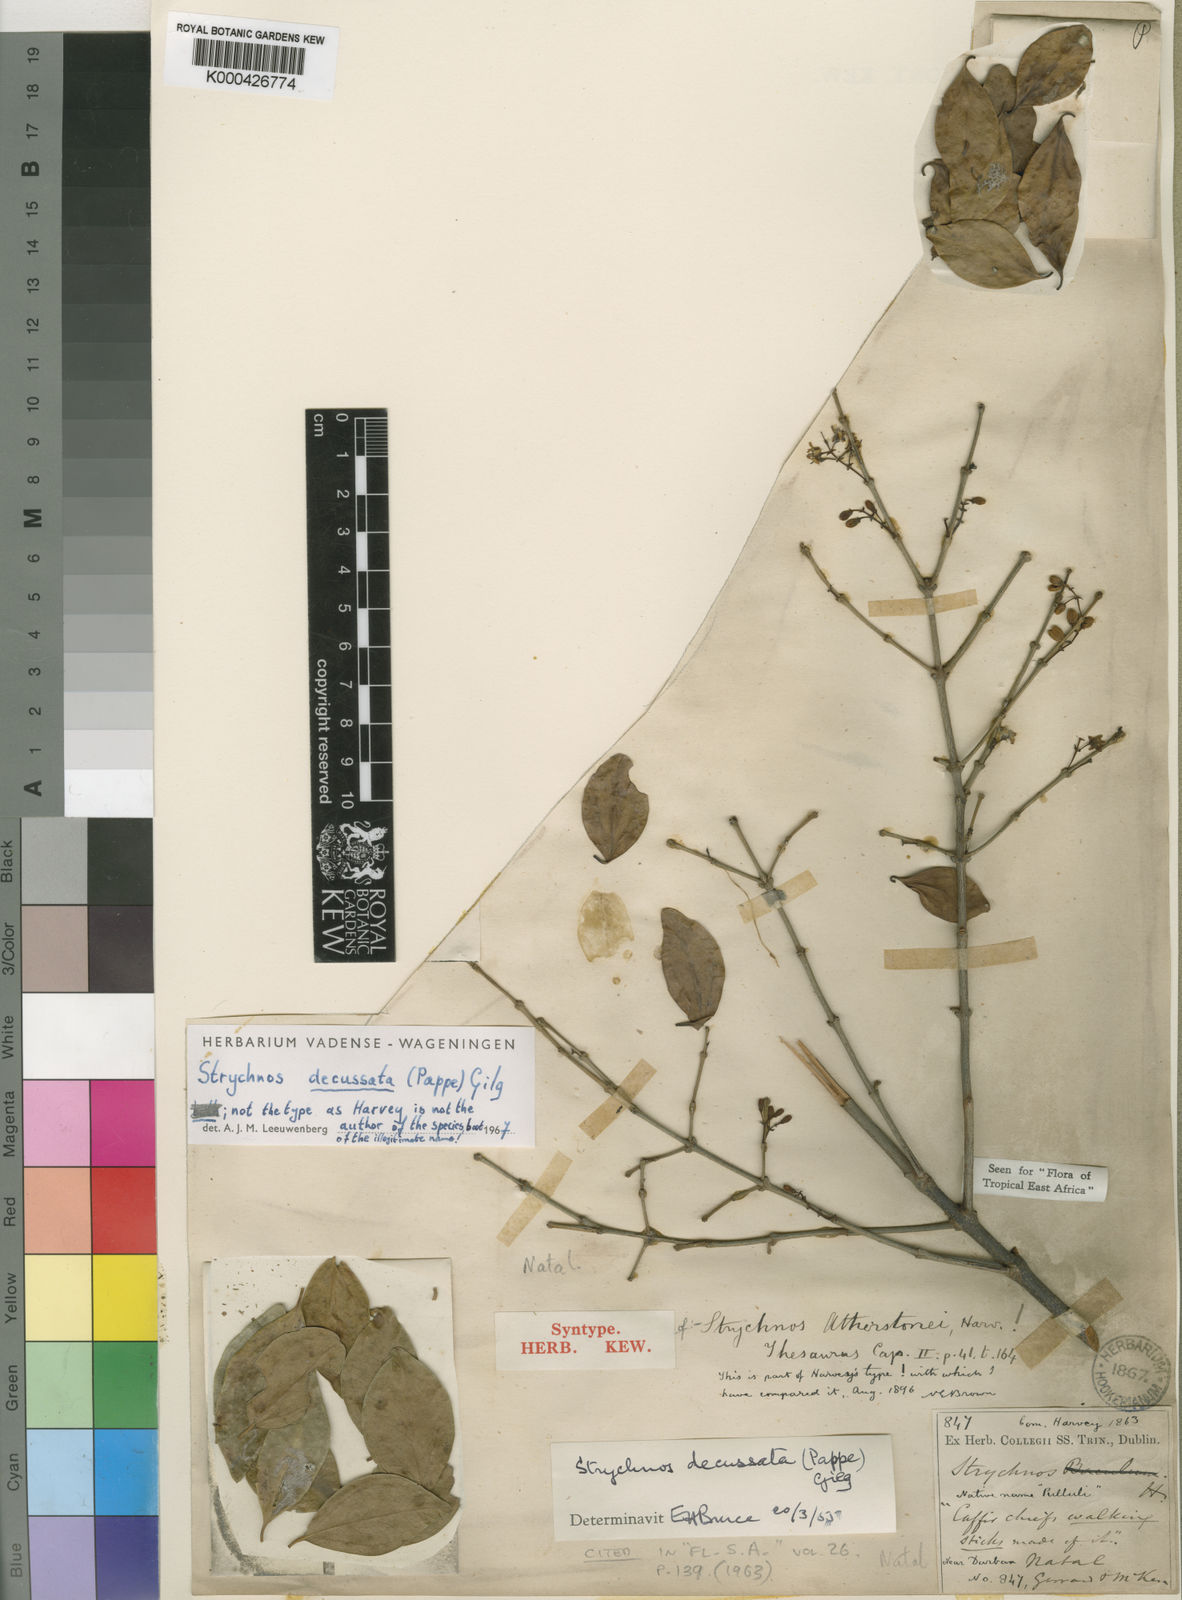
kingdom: Plantae
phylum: Tracheophyta
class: Magnoliopsida
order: Gentianales
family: Loganiaceae
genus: Strychnos
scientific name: Strychnos decussata
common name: Cape teak
